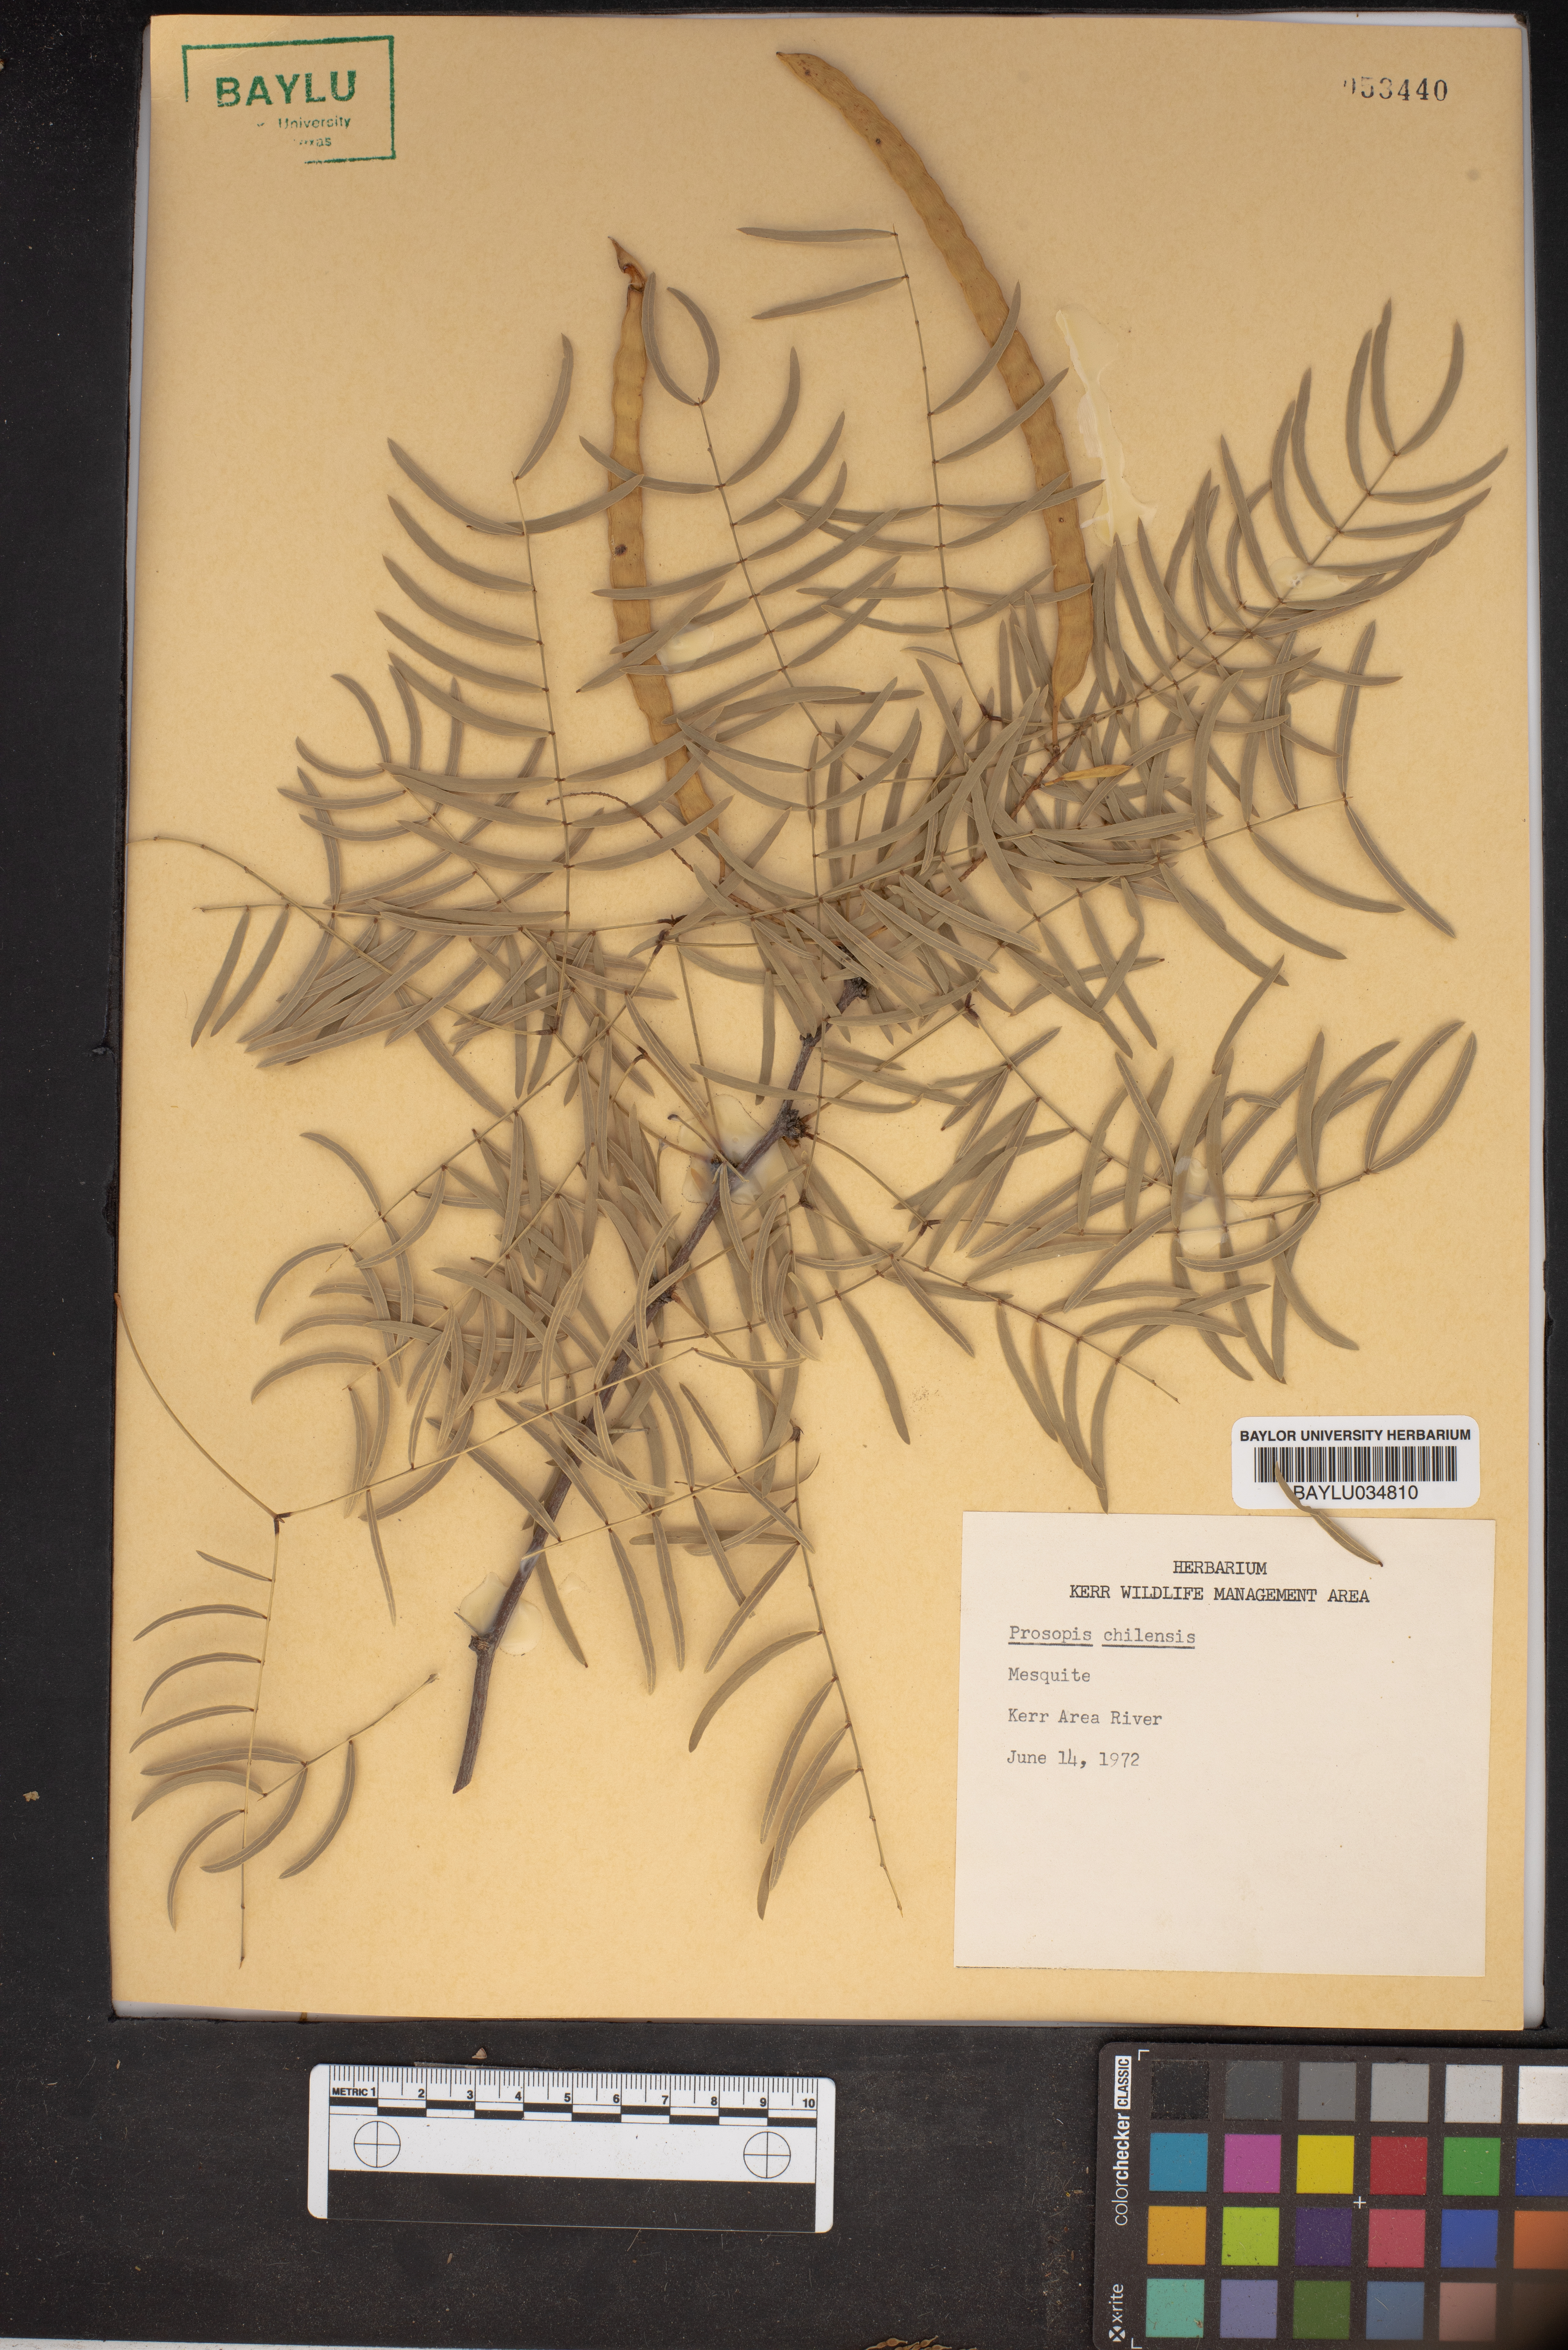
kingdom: Plantae
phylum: Tracheophyta
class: Magnoliopsida
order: Fabales
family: Fabaceae
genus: Prosopis
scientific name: Prosopis chilensis
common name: Chilean algarrobo
